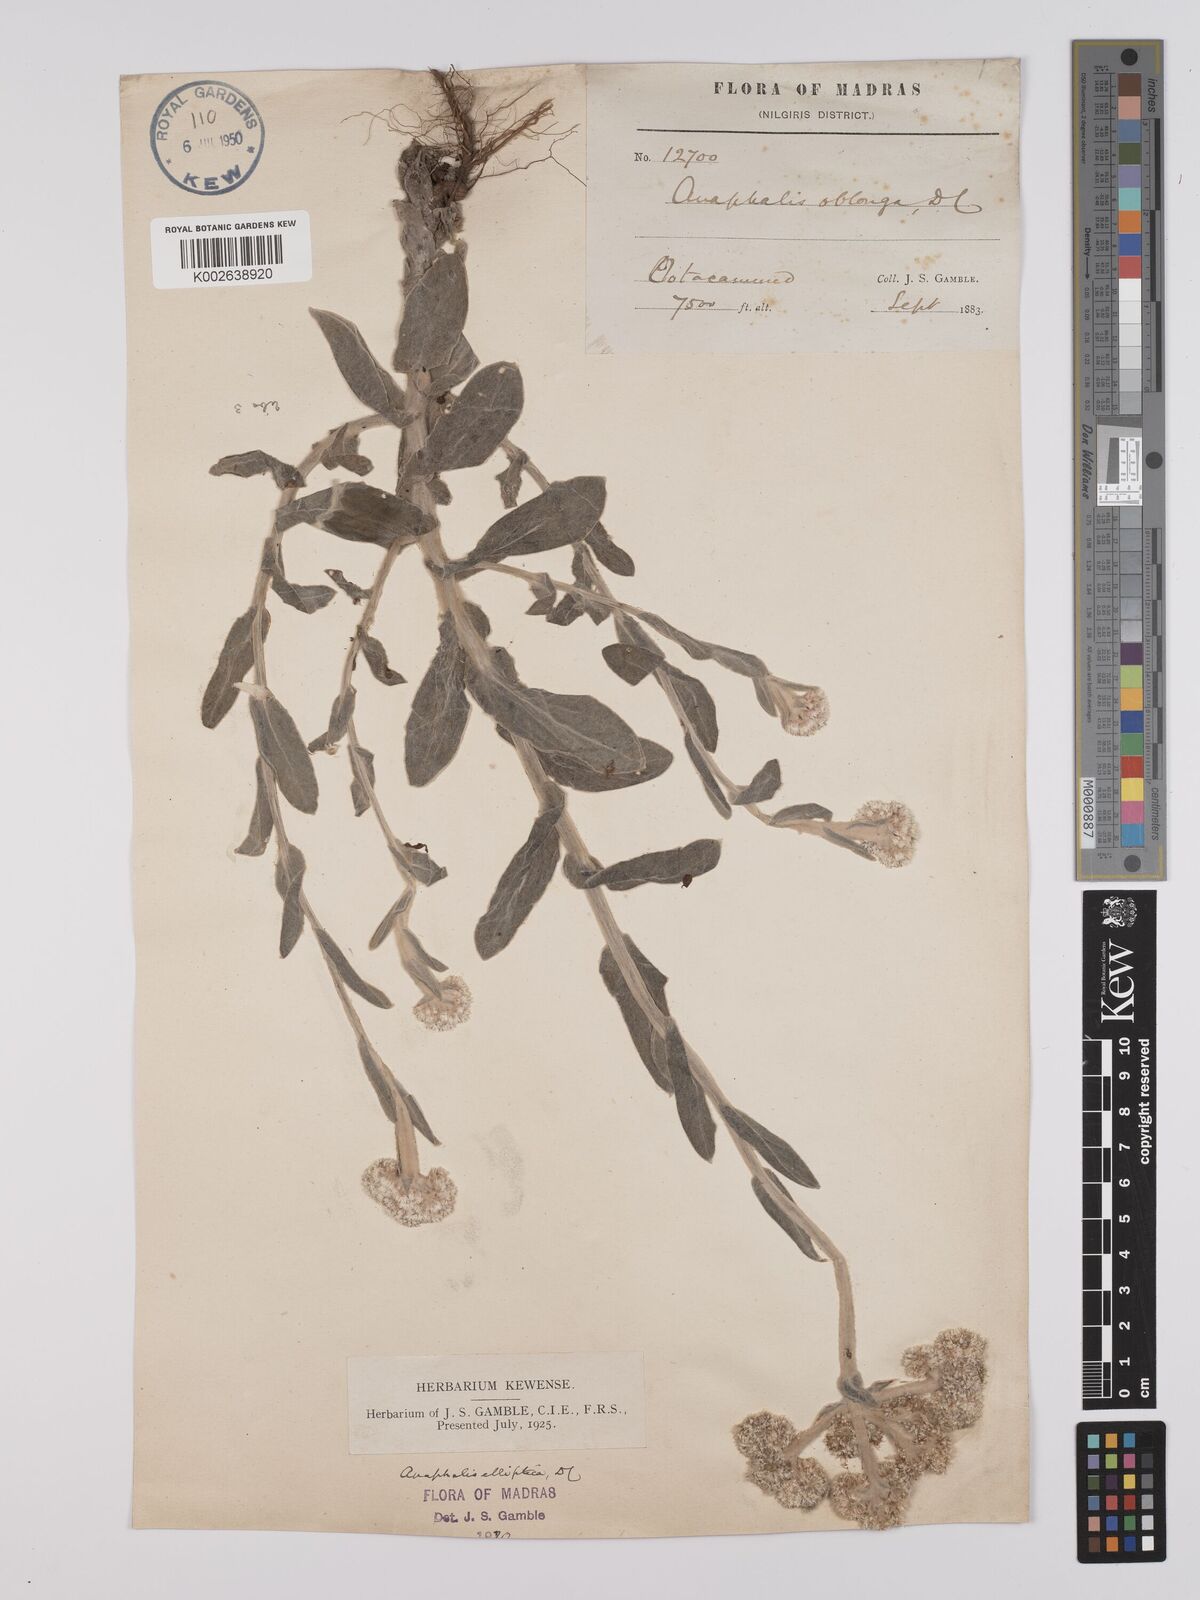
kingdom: Plantae
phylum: Tracheophyta
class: Magnoliopsida
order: Asterales
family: Asteraceae
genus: Anaphalis
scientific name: Anaphalis elliptica
